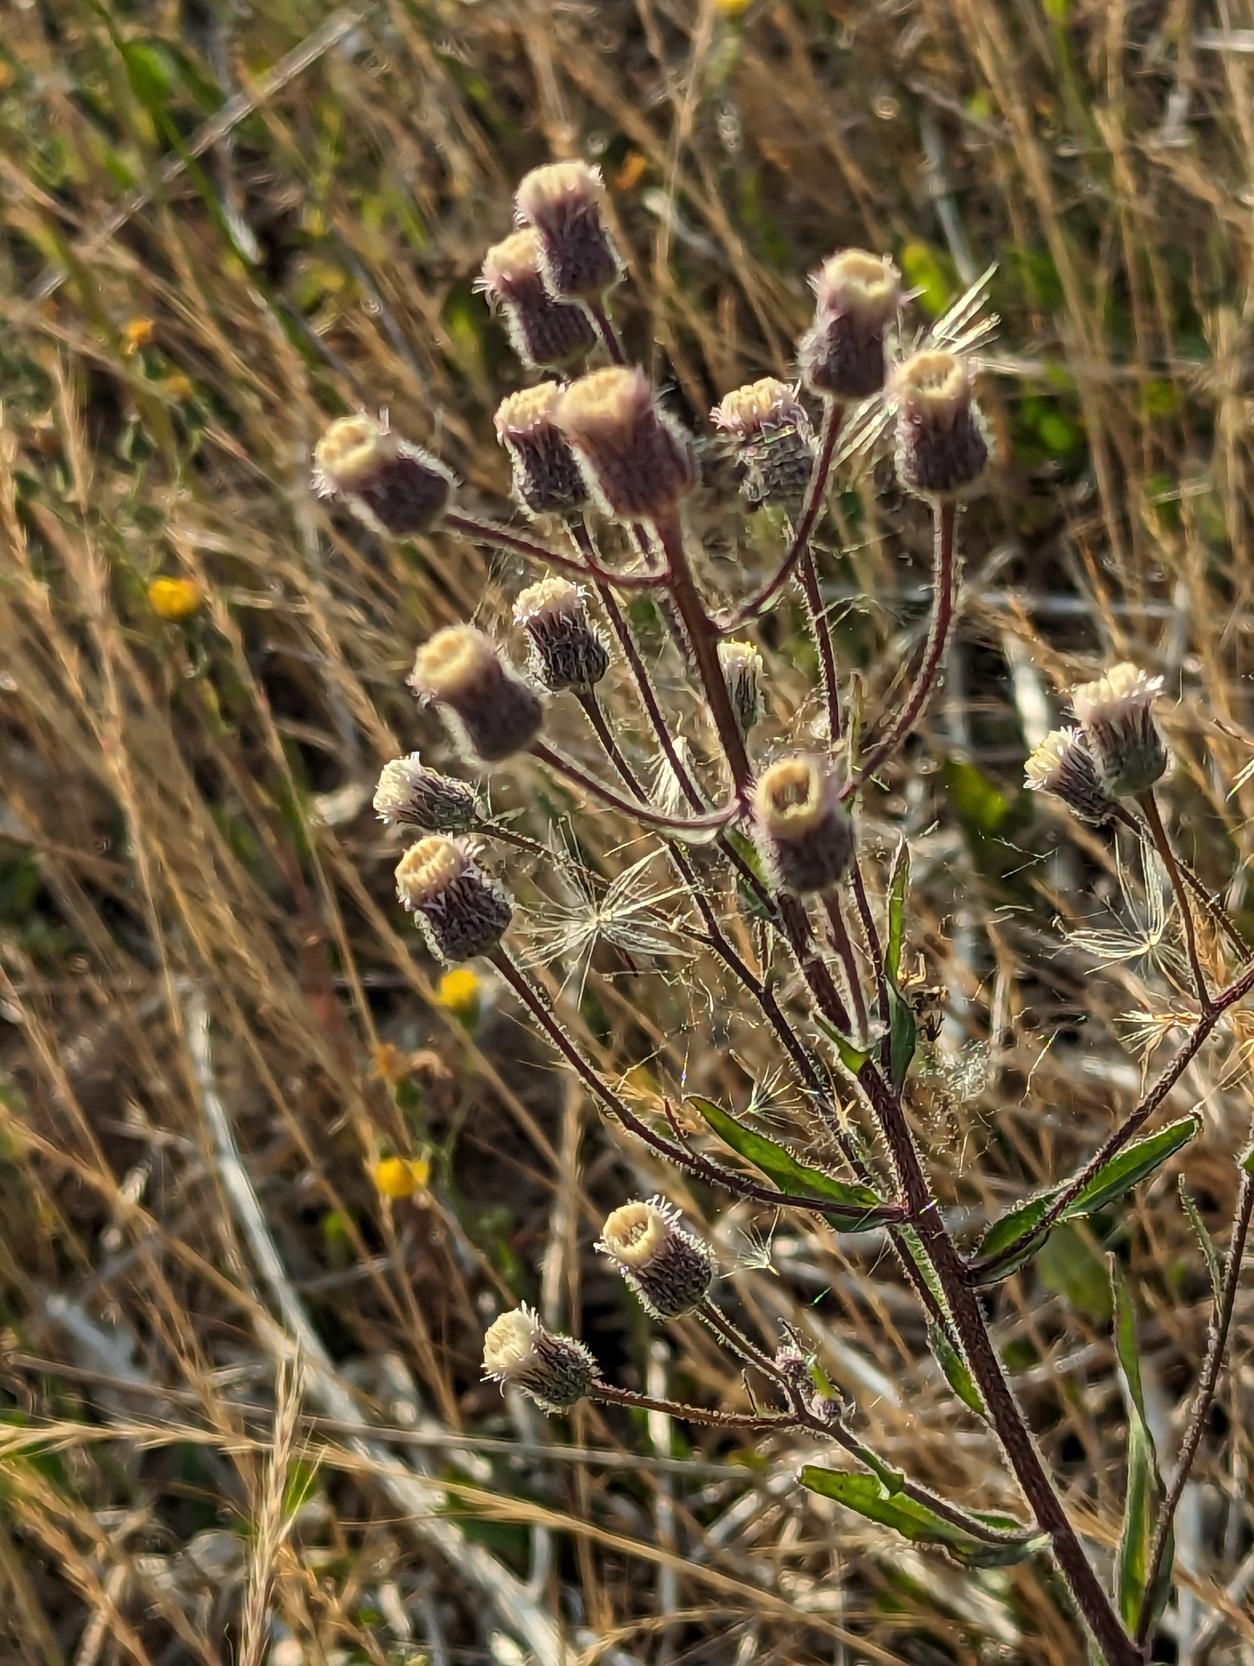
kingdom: Plantae
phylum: Tracheophyta
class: Magnoliopsida
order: Asterales
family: Asteraceae
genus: Erigeron
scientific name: Erigeron acris
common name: Bitter bakkestjerne
